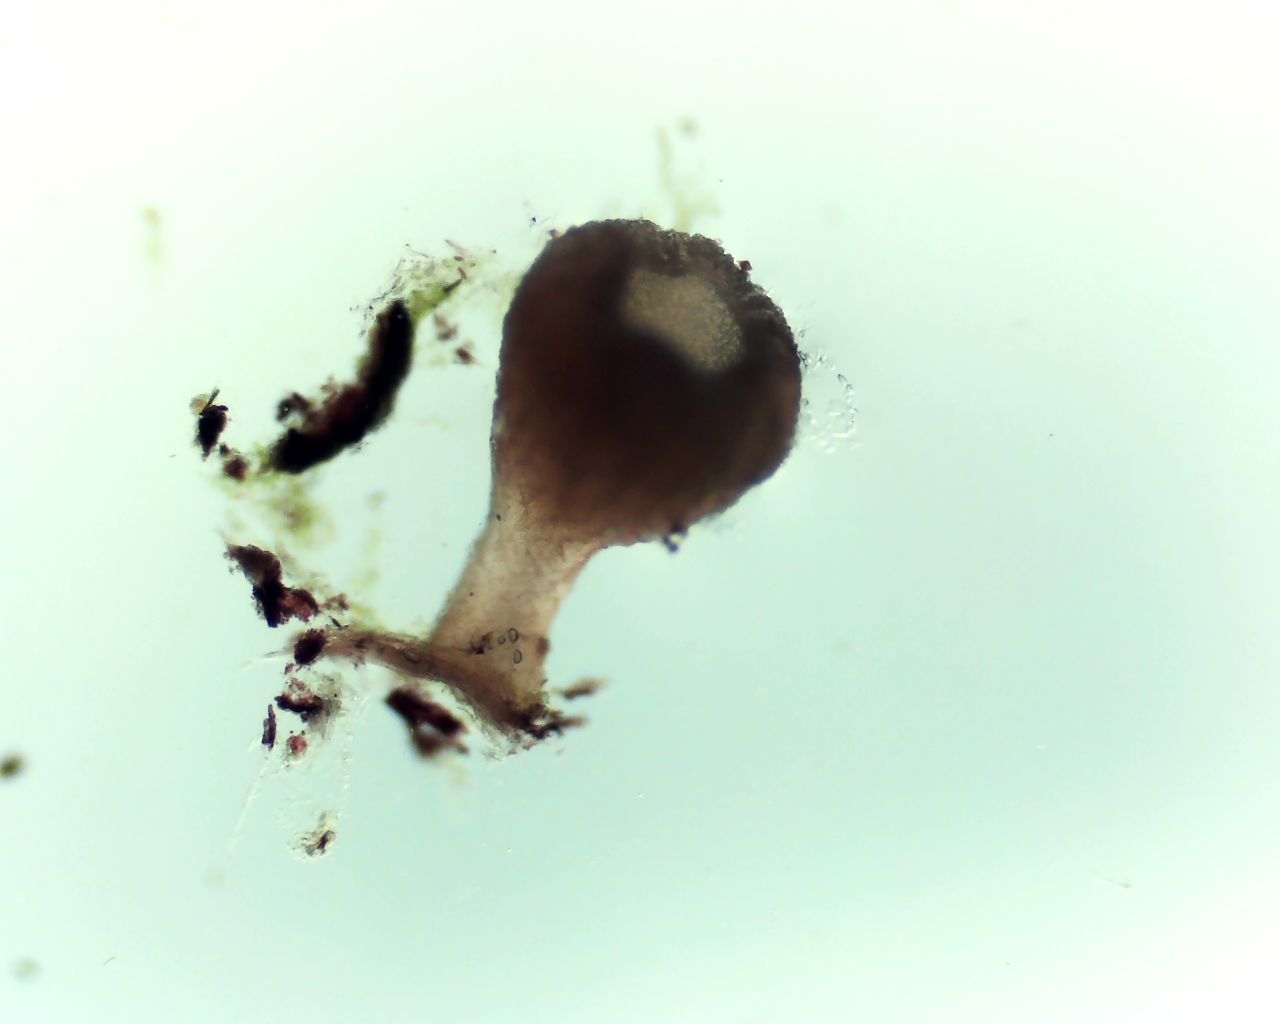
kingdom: Fungi
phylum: Ascomycota
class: Leotiomycetes
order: Helotiales
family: Helotiaceae
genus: Cyathicula
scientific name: Cyathicula cyathoidea
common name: pokal-stilkskive
